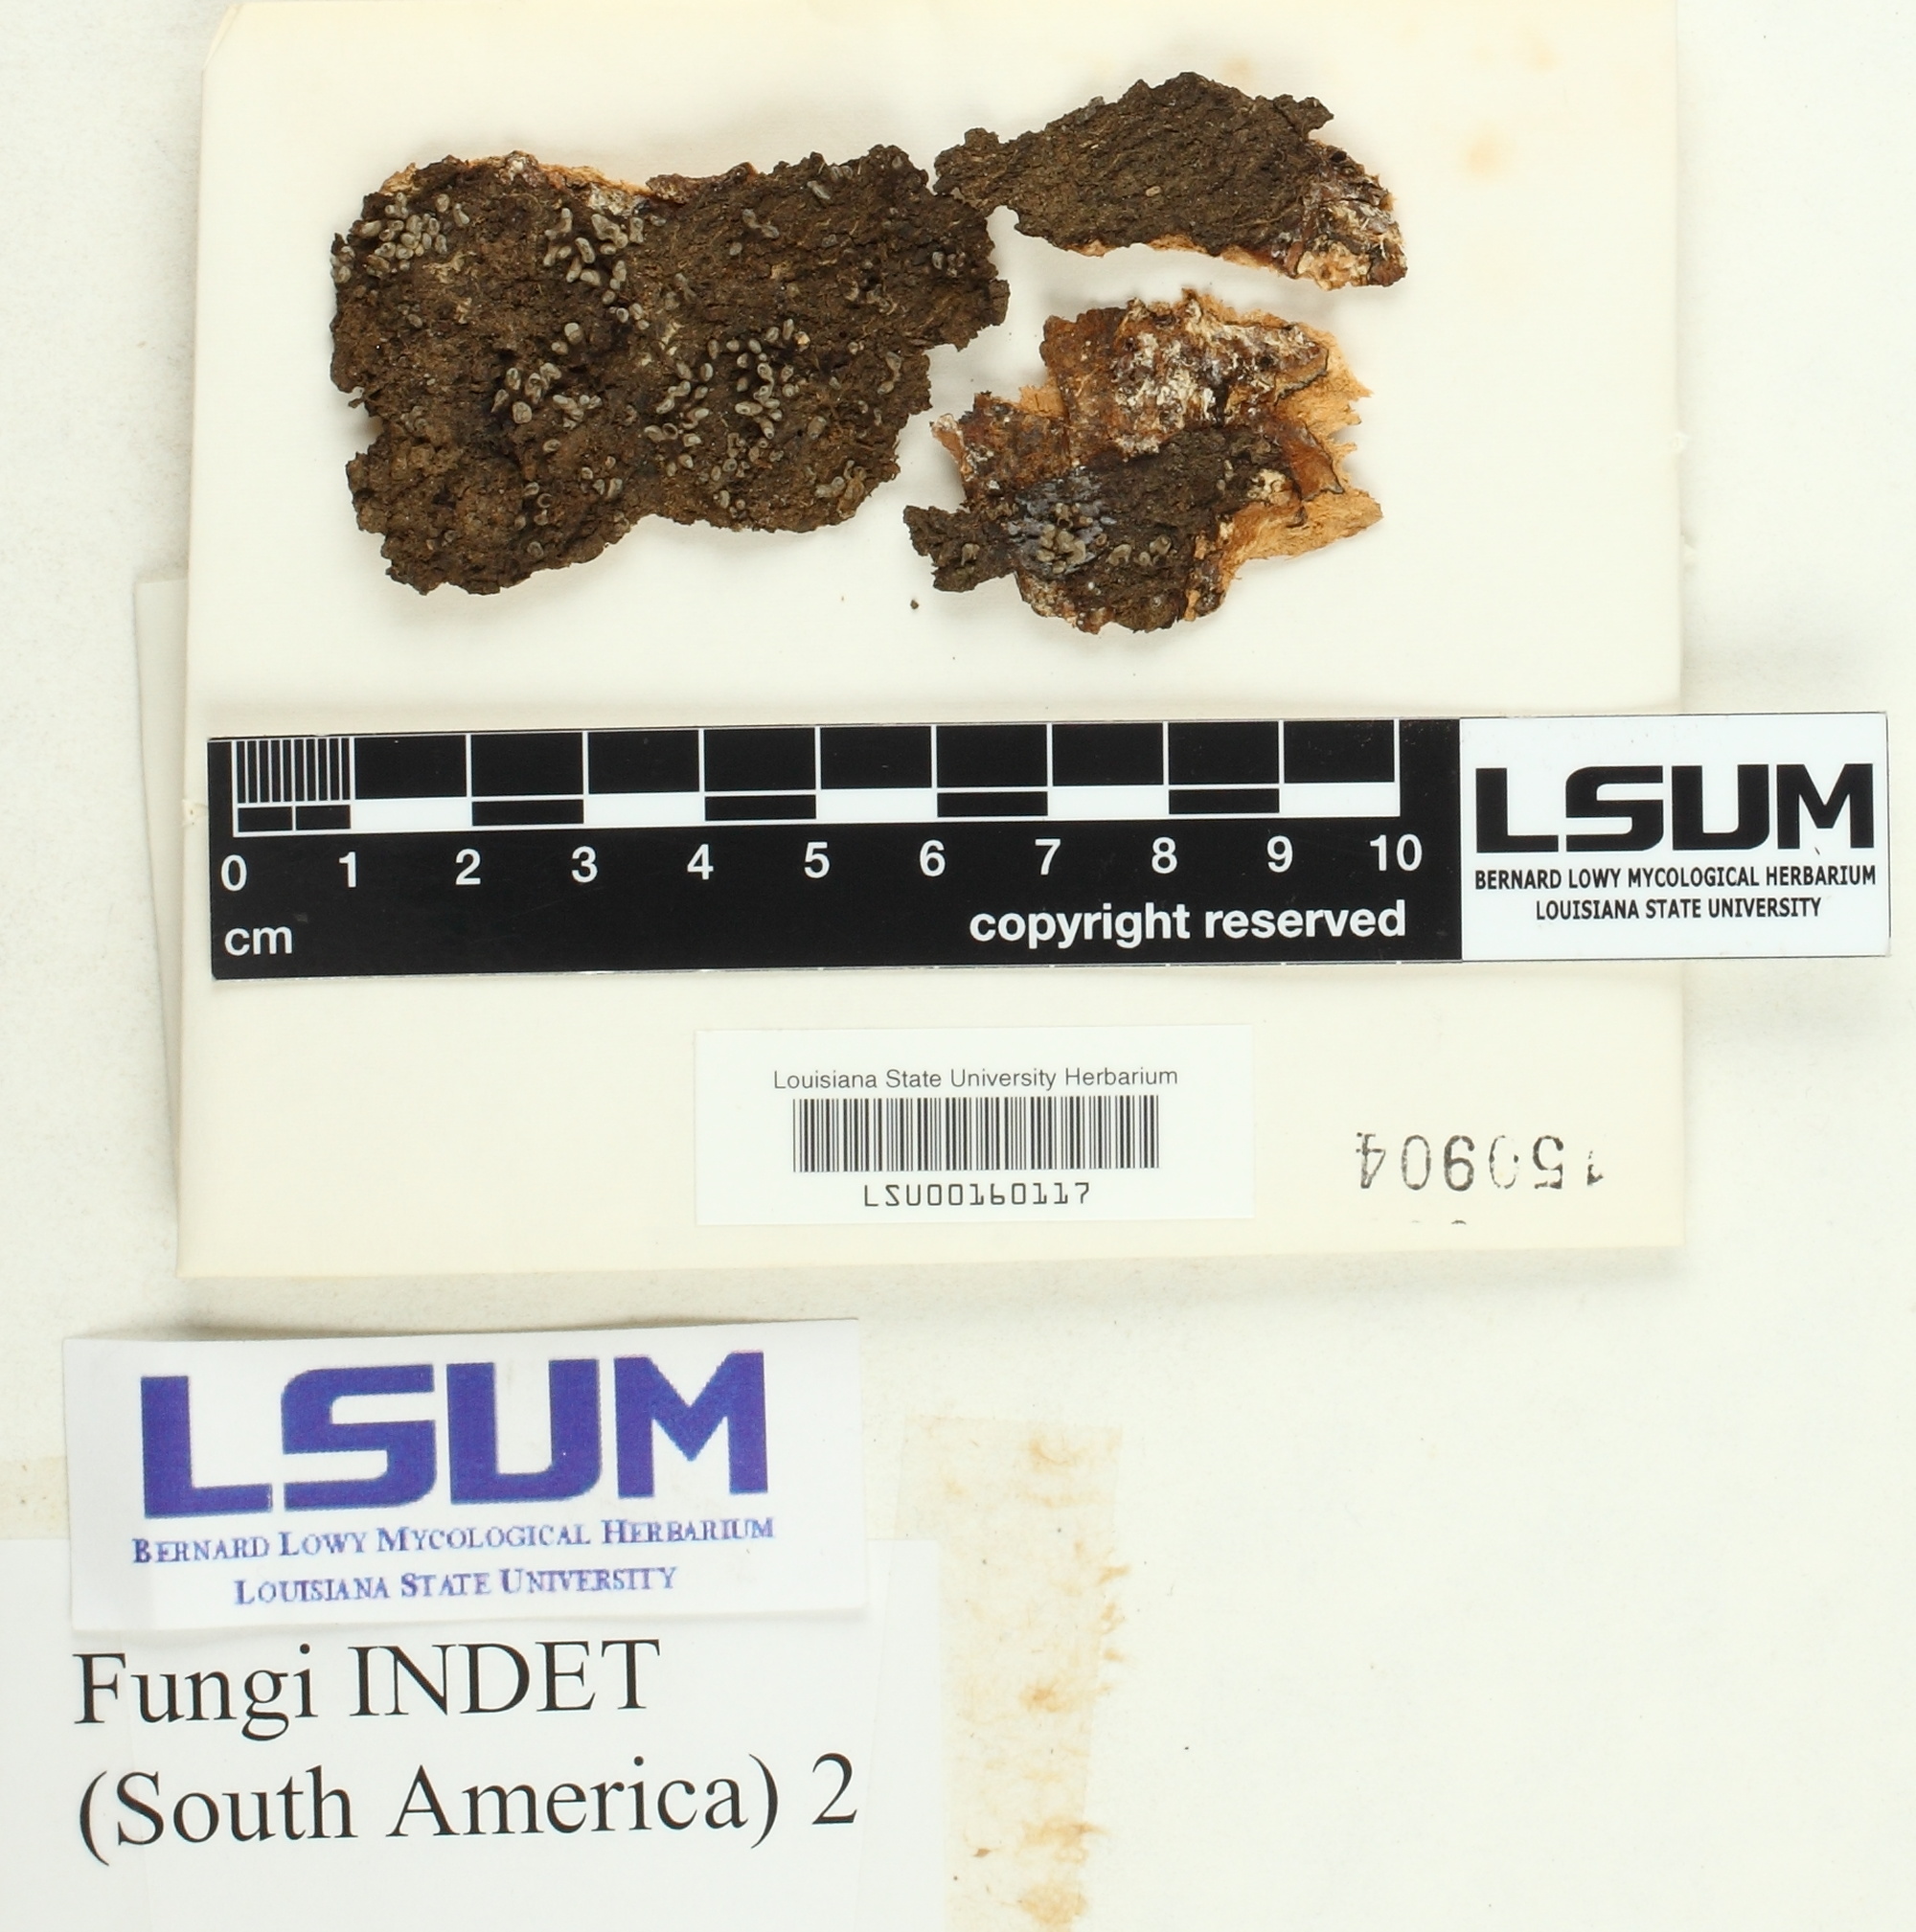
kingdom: Fungi
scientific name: Fungi
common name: Fungi
